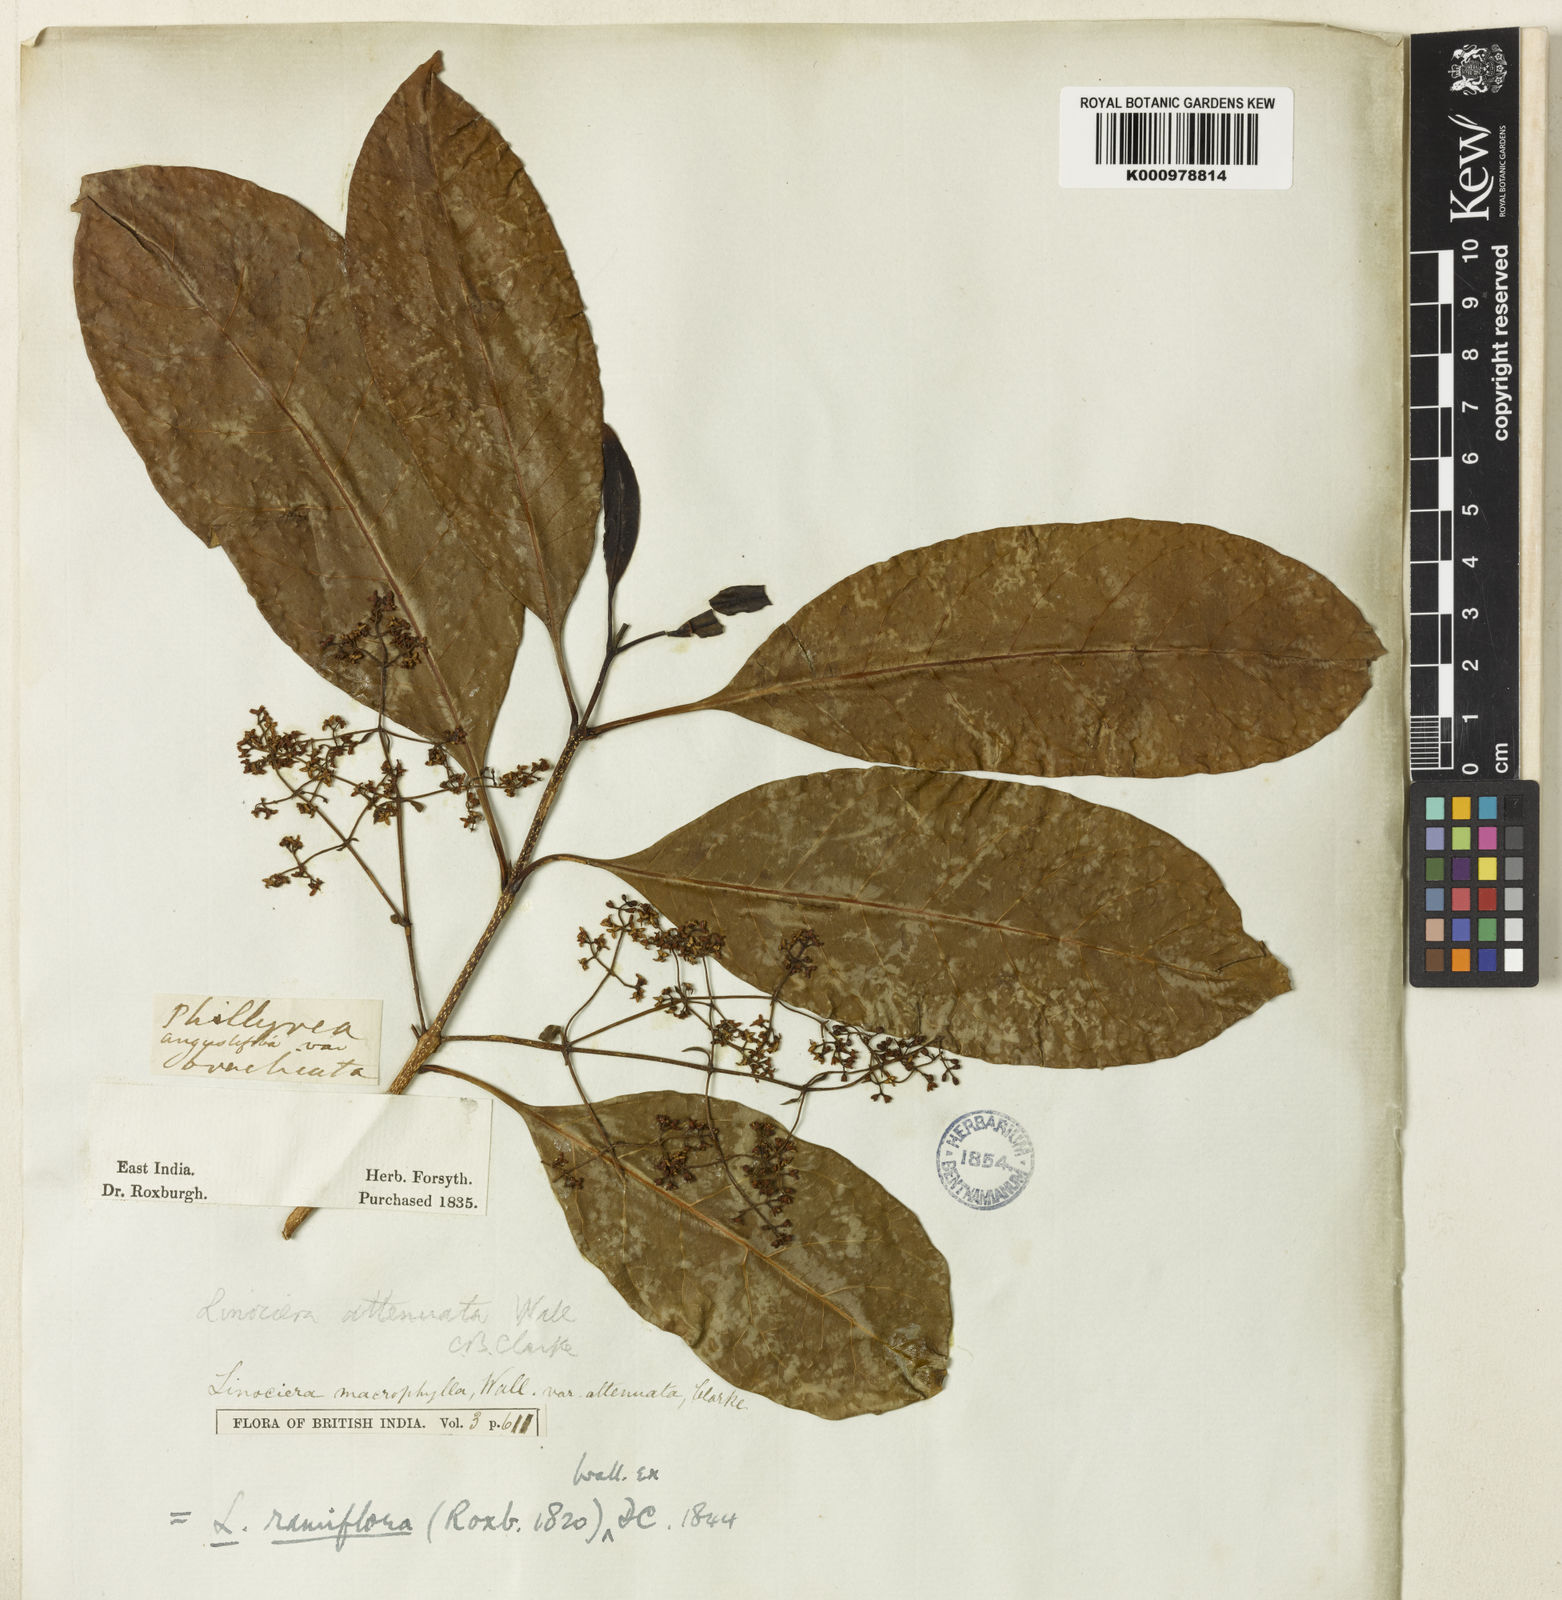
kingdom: Plantae
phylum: Tracheophyta
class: Magnoliopsida
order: Lamiales
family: Oleaceae
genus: Chionanthus
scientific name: Chionanthus ramiflorus
